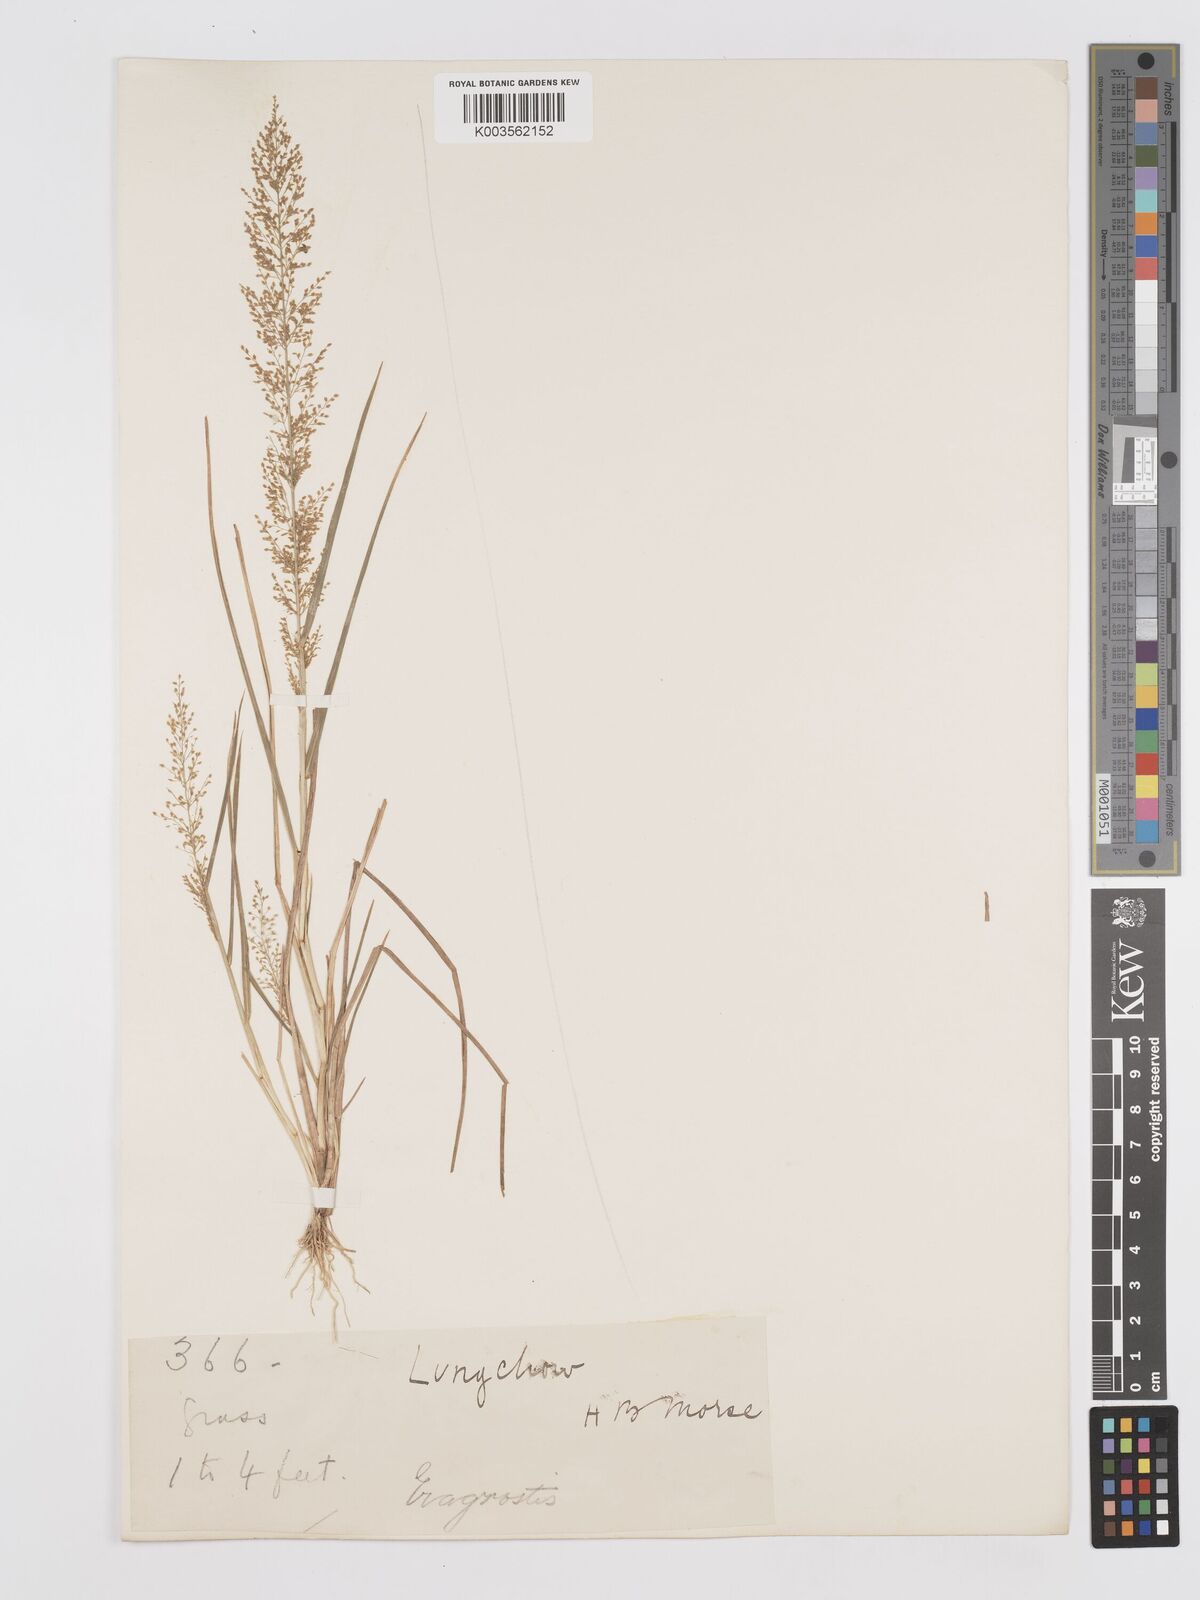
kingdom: Plantae
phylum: Tracheophyta
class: Liliopsida
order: Poales
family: Poaceae
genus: Eragrostis
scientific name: Eragrostis japonica
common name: Pond lovegrass
